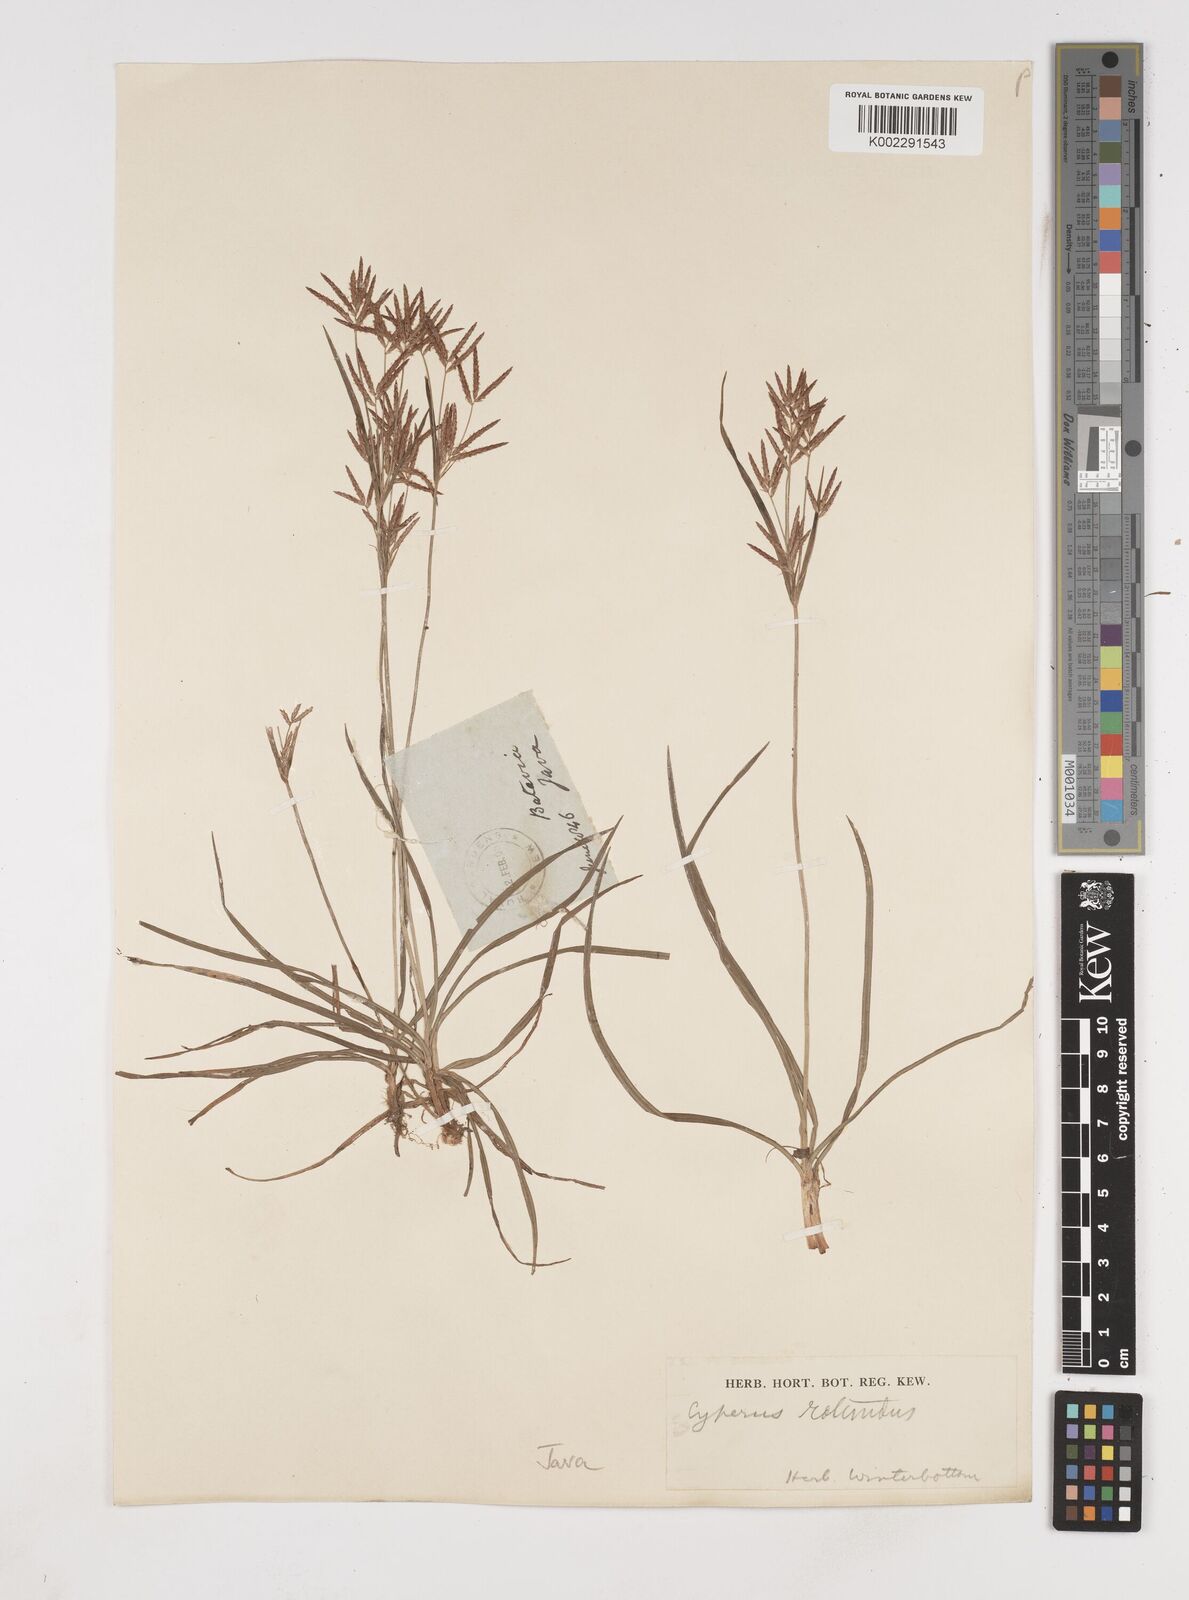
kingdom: Plantae
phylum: Tracheophyta
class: Liliopsida
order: Poales
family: Cyperaceae
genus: Cyperus
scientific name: Cyperus rotundus
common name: Nutgrass
